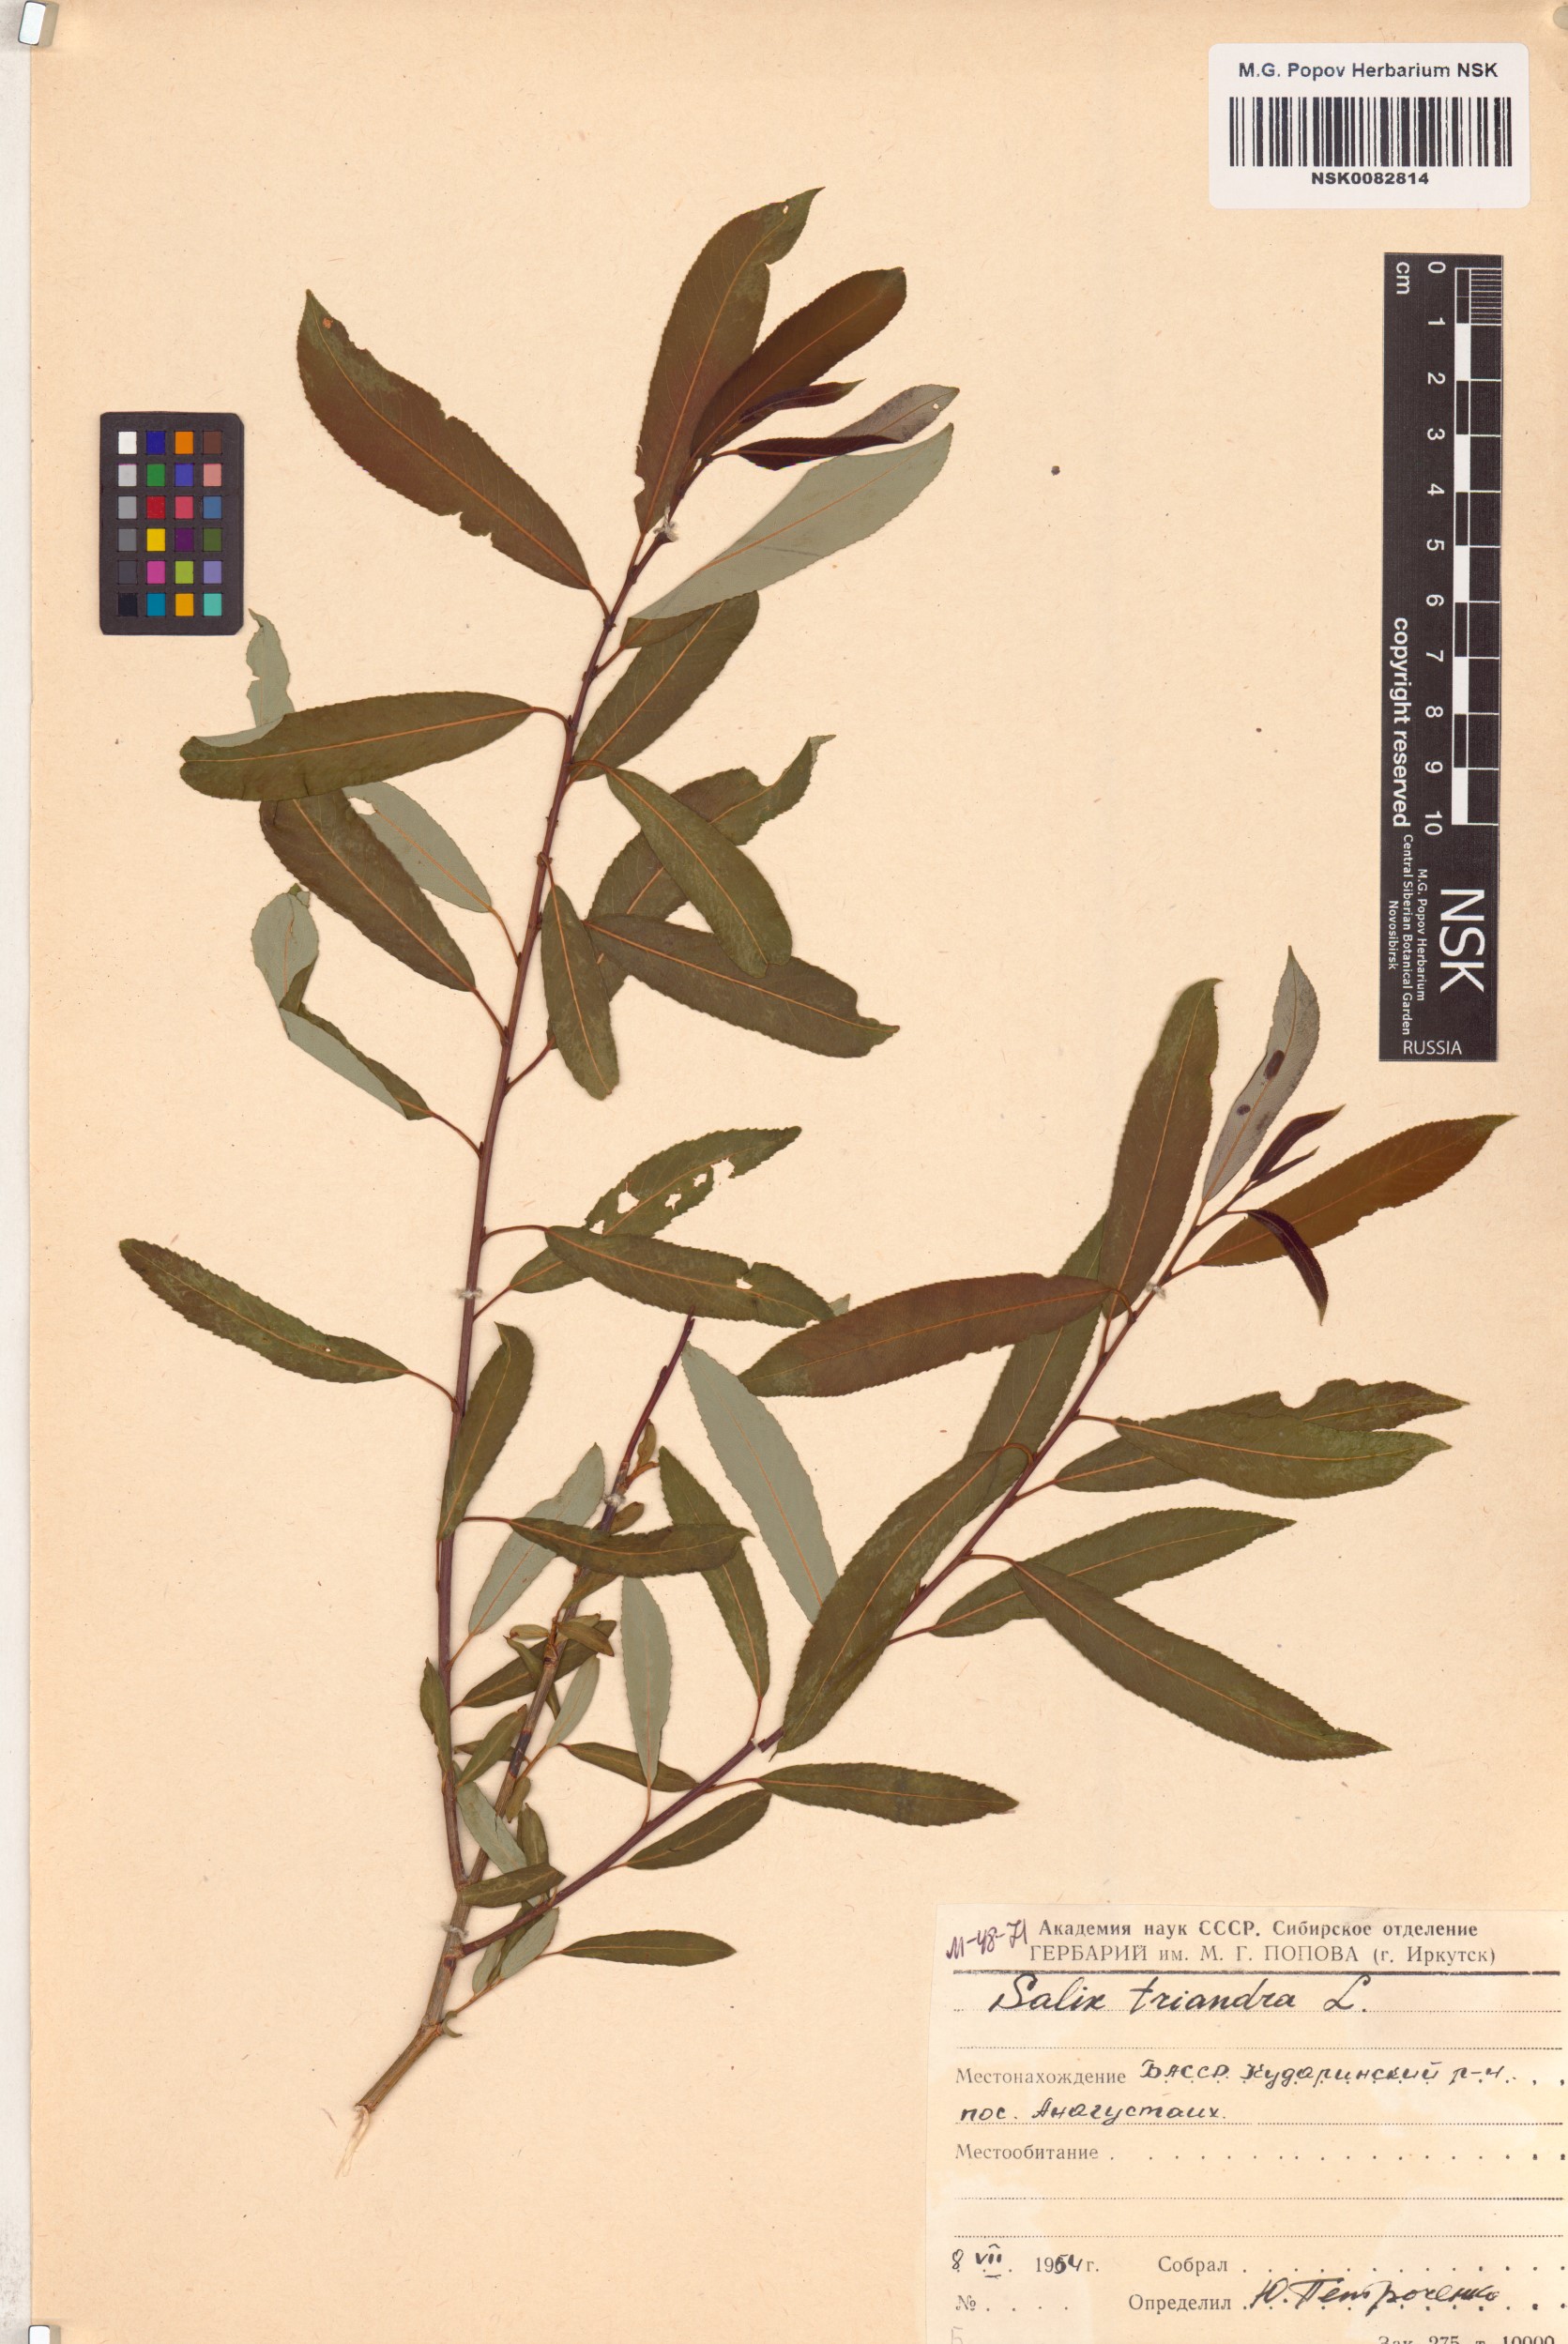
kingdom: Plantae
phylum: Tracheophyta
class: Magnoliopsida
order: Malpighiales
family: Salicaceae
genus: Salix
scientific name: Salix triandra
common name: Almond willow
